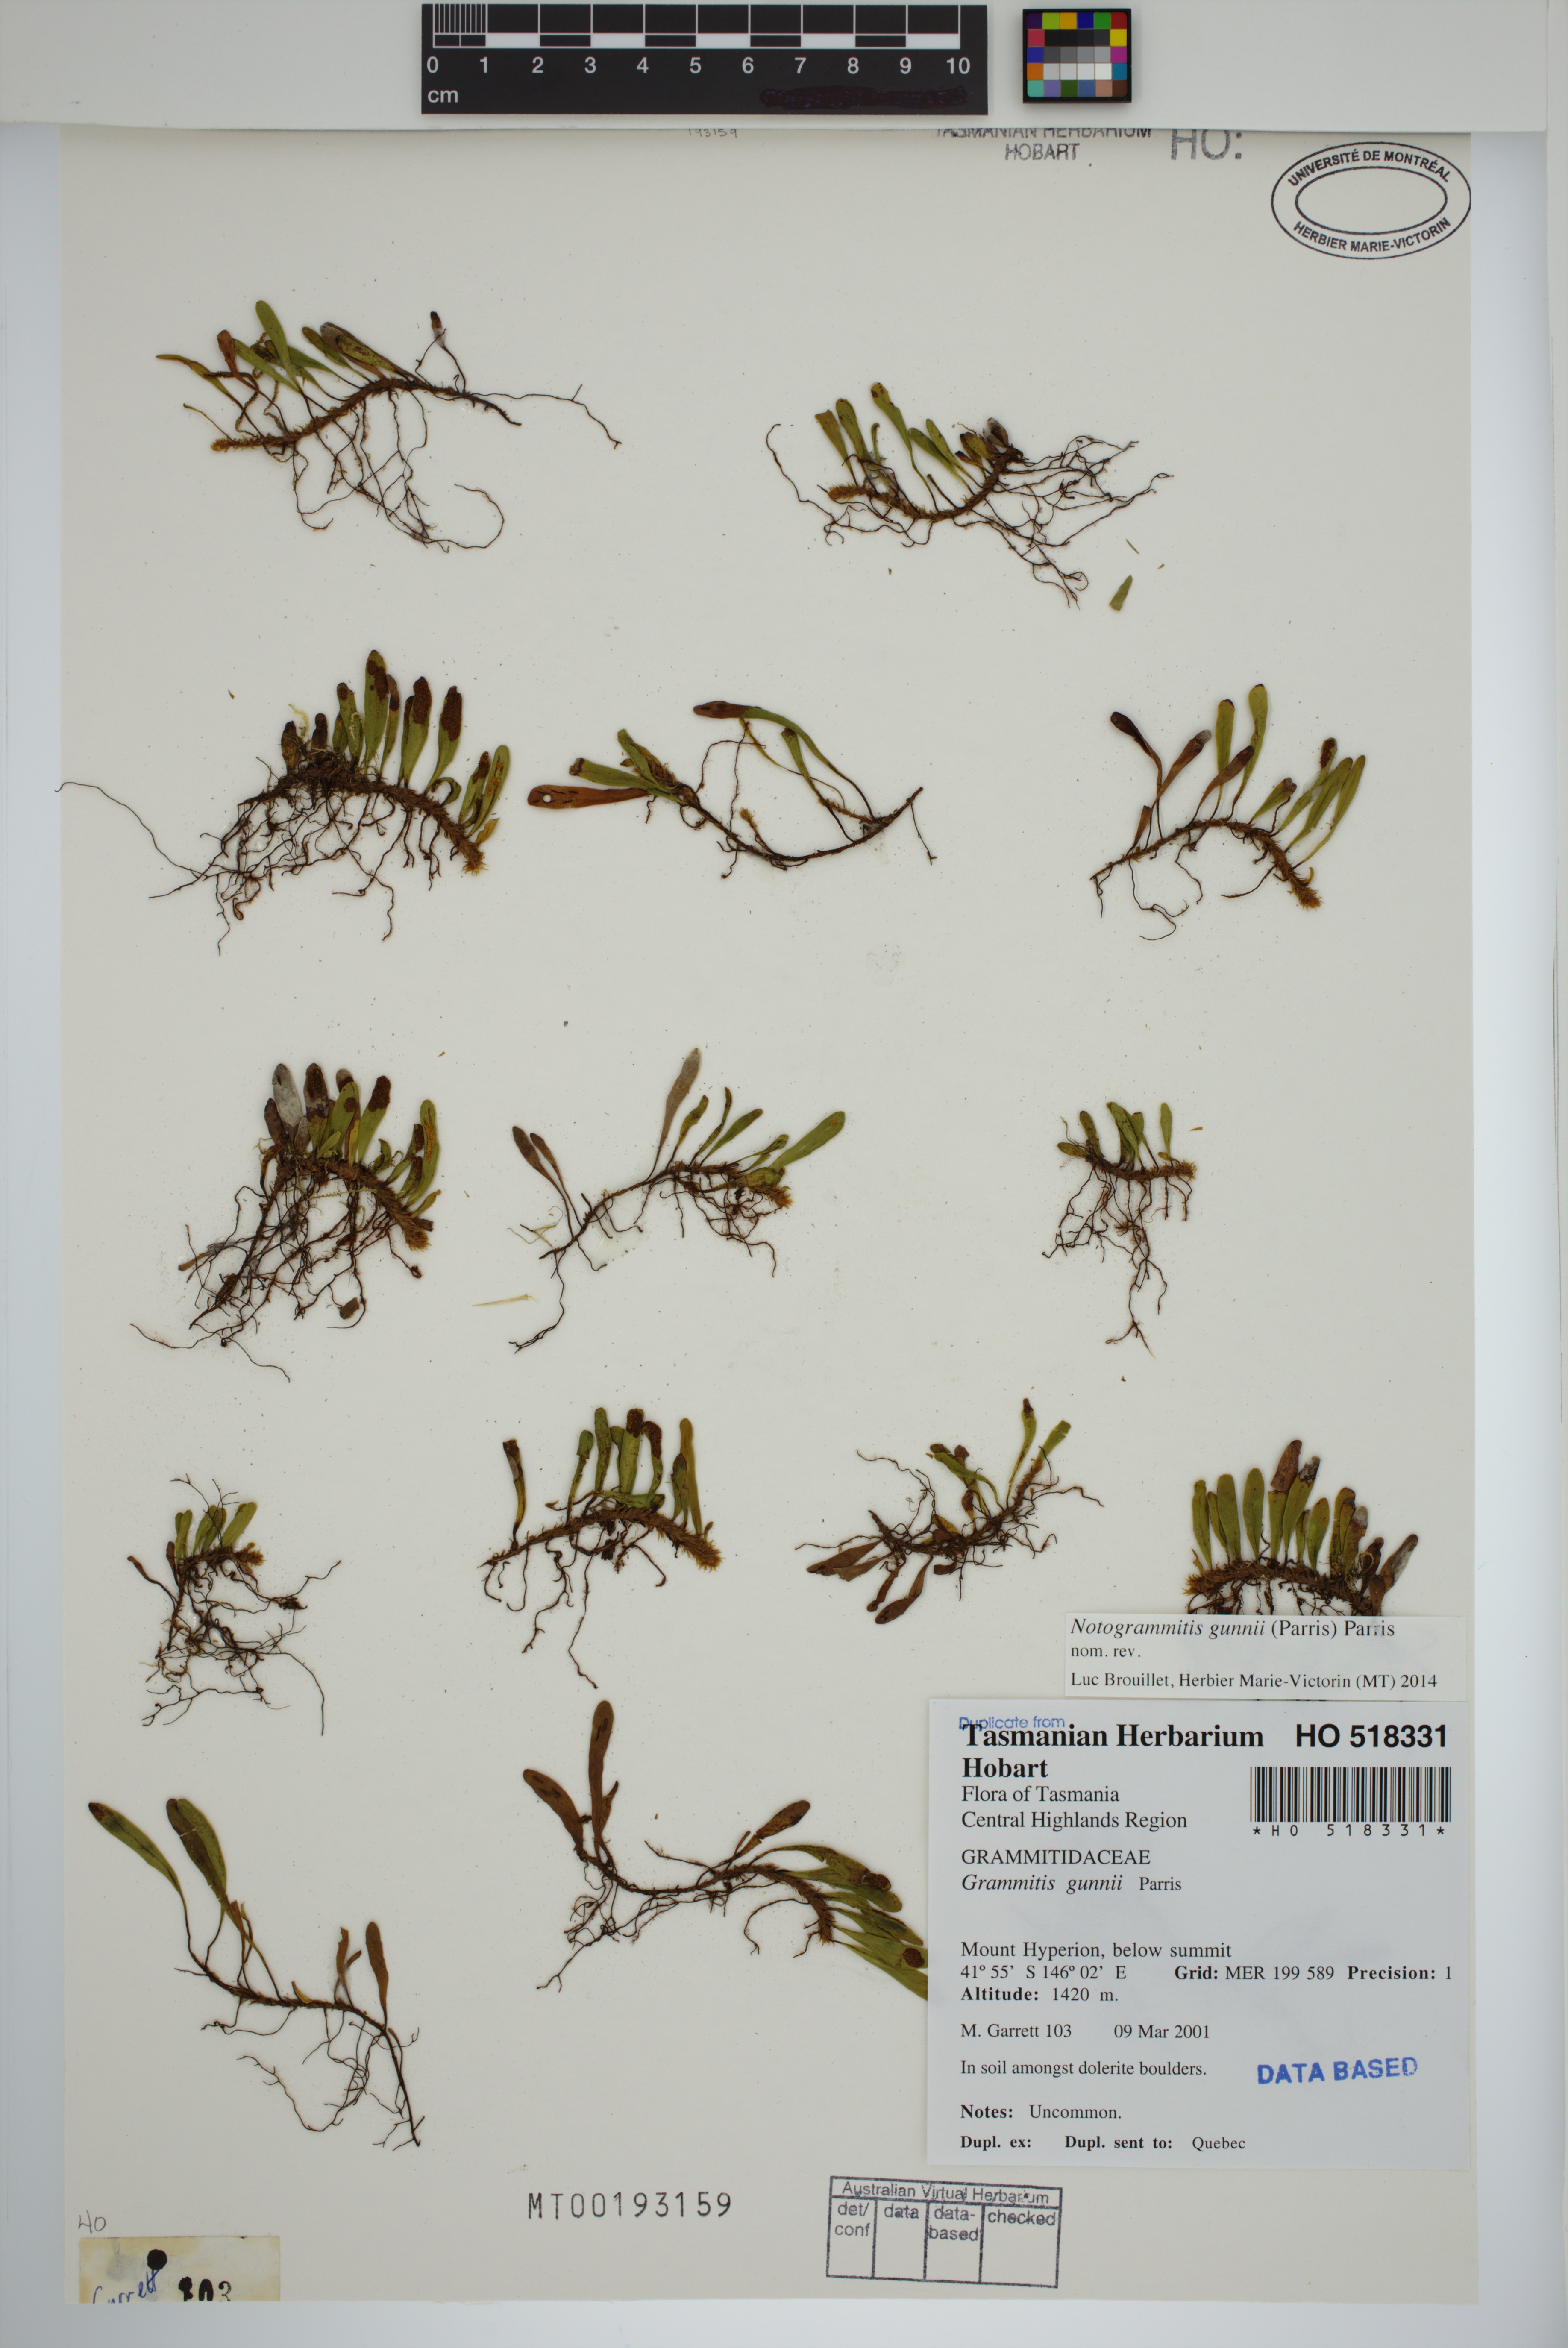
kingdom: Plantae
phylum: Tracheophyta
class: Polypodiopsida
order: Polypodiales
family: Polypodiaceae
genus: Notogrammitis
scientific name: Notogrammitis gunnii
